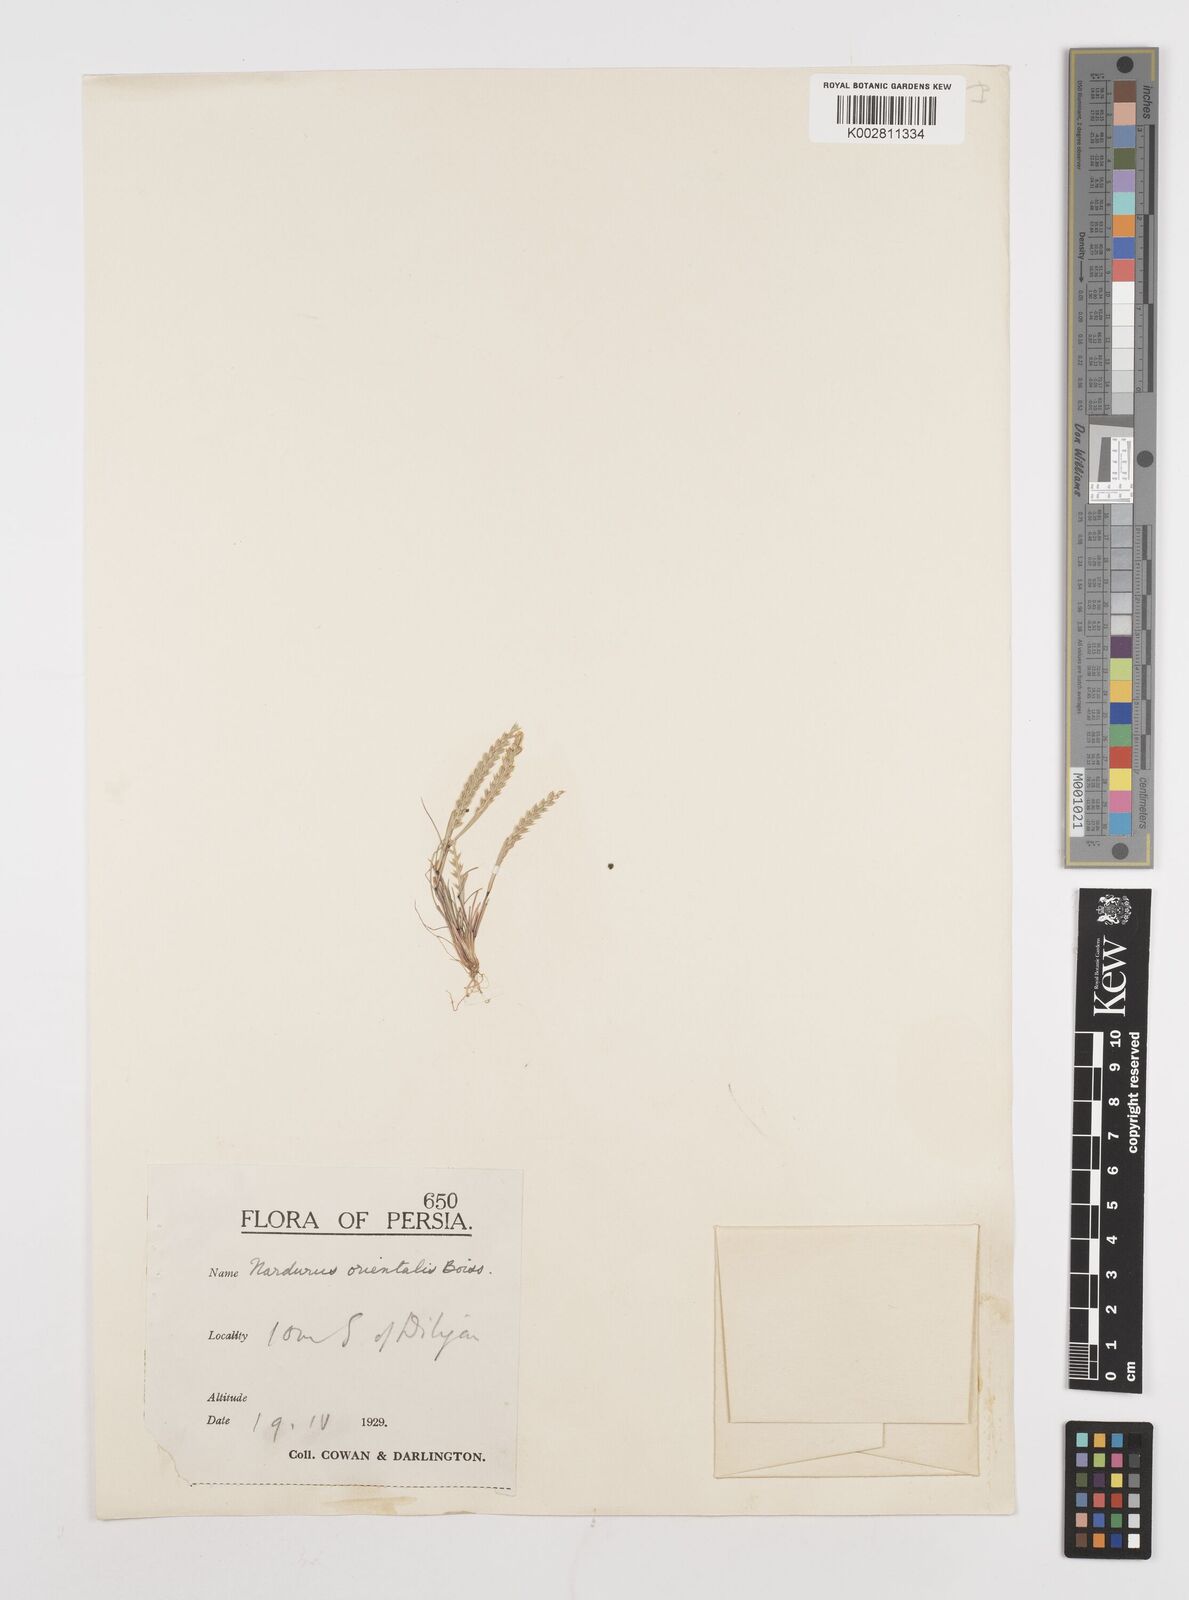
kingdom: Plantae
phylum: Tracheophyta
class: Liliopsida
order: Poales
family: Poaceae
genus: Festuca
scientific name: Festuca orientalis
